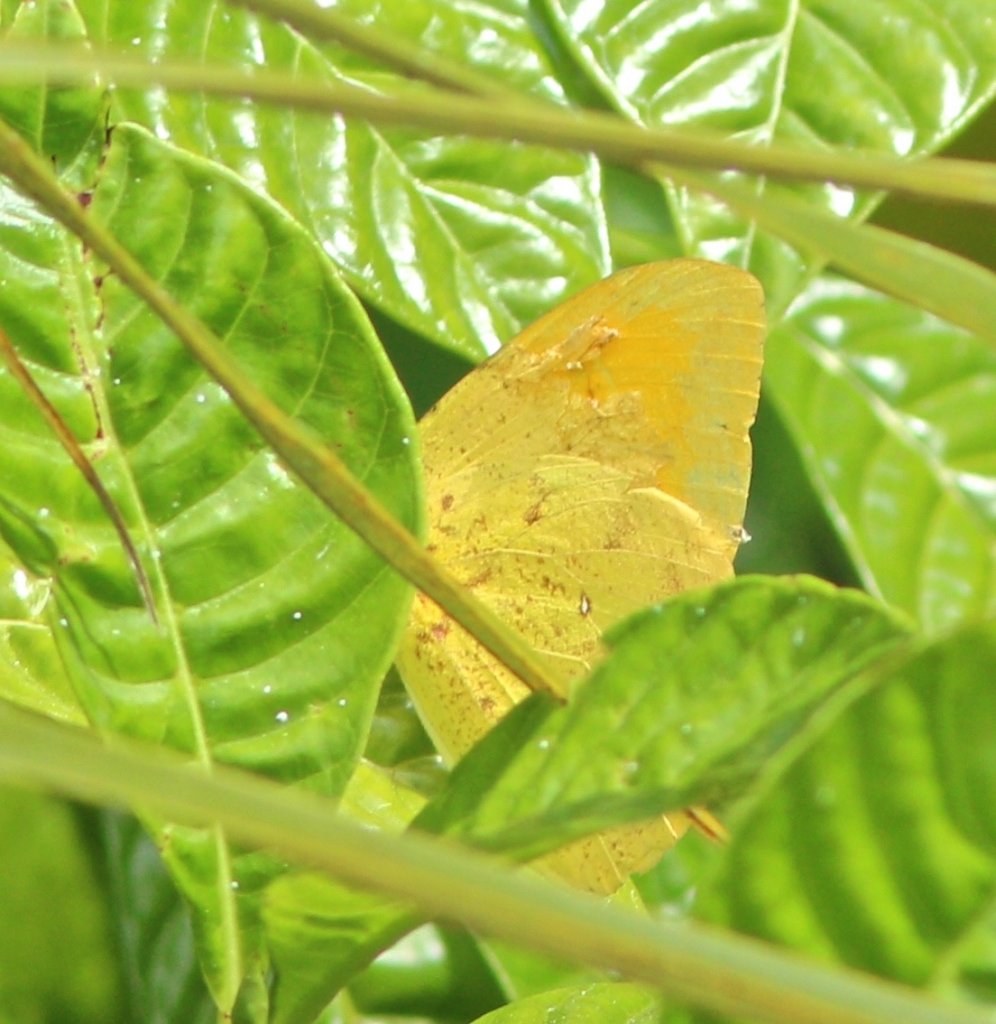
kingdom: Animalia
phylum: Arthropoda
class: Insecta
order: Lepidoptera
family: Pieridae
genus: Phoebis
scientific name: Phoebis agarithe
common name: Large Orange Sulphur
